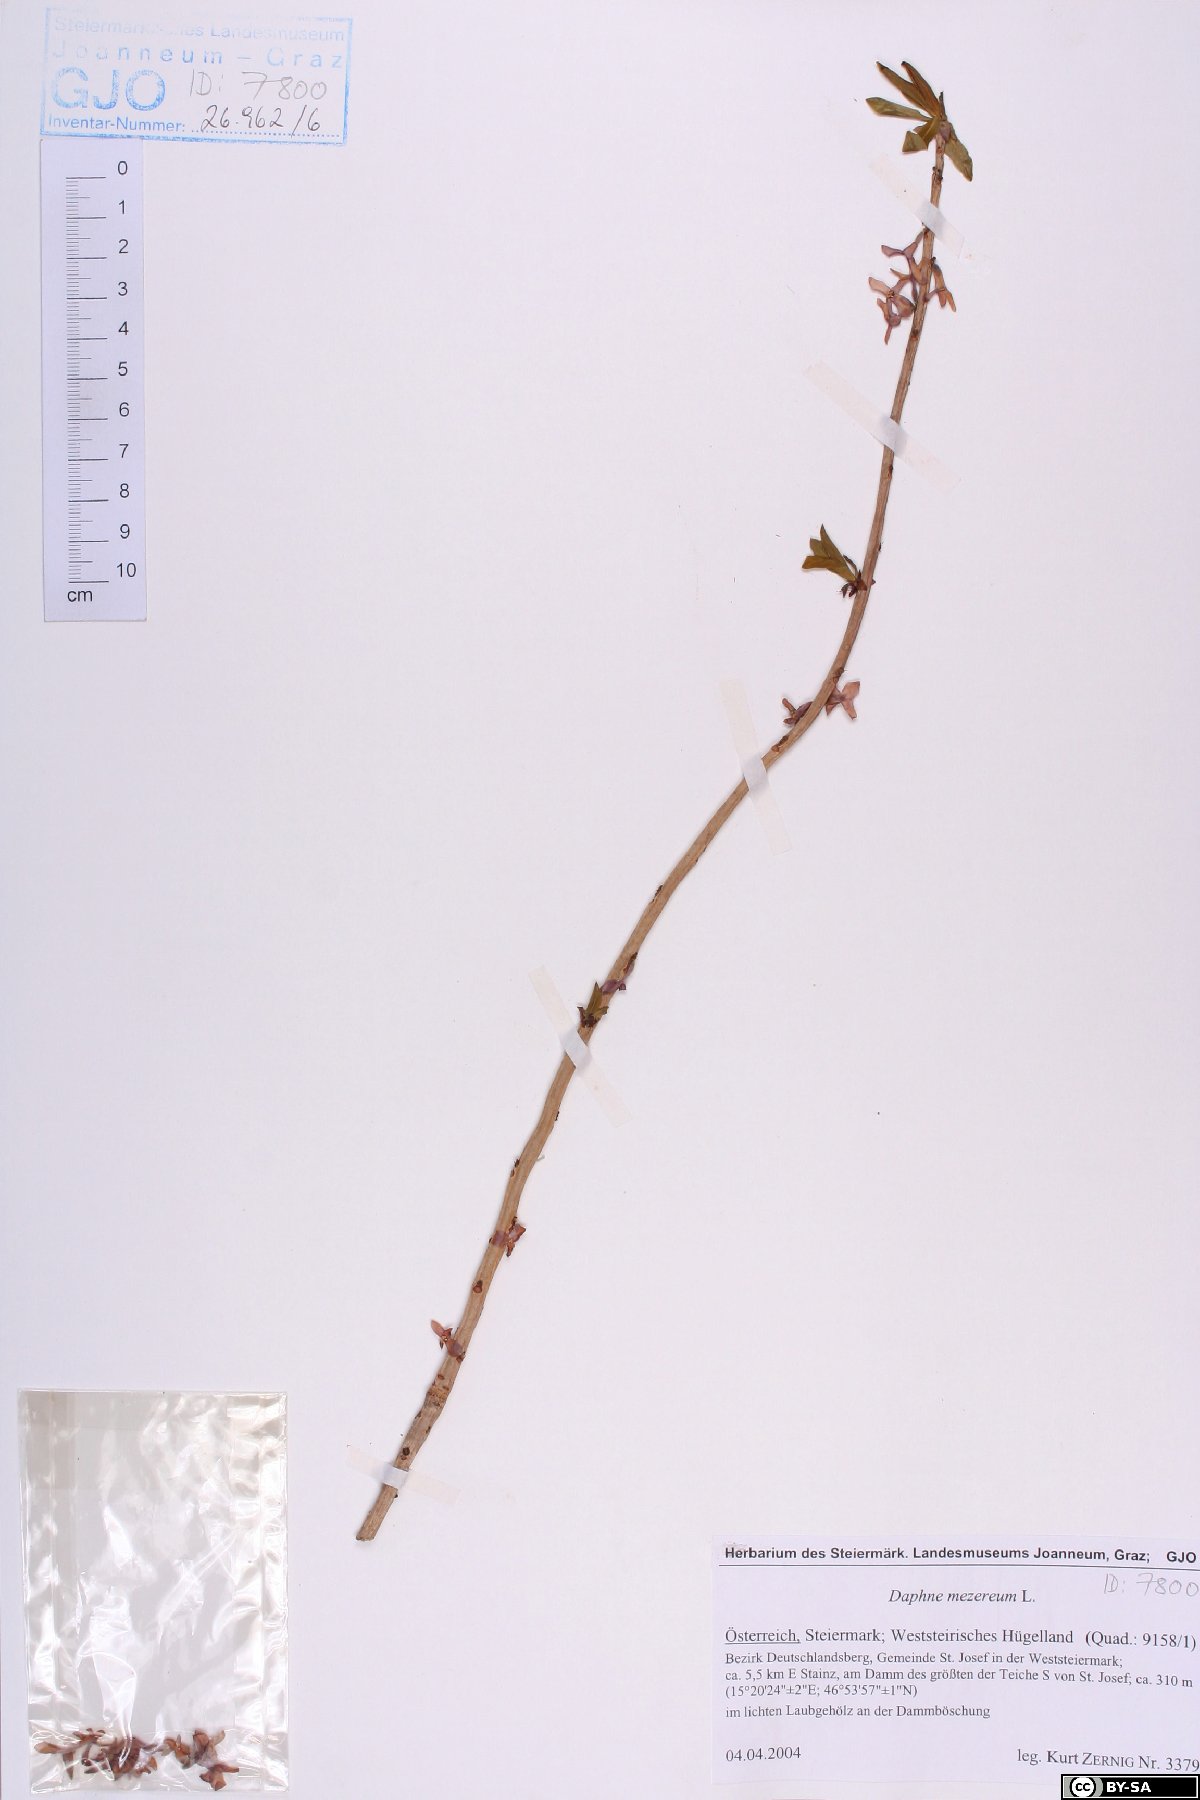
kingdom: Plantae
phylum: Tracheophyta
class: Magnoliopsida
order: Malvales
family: Thymelaeaceae
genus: Daphne
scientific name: Daphne mezereum
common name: Mezereon
